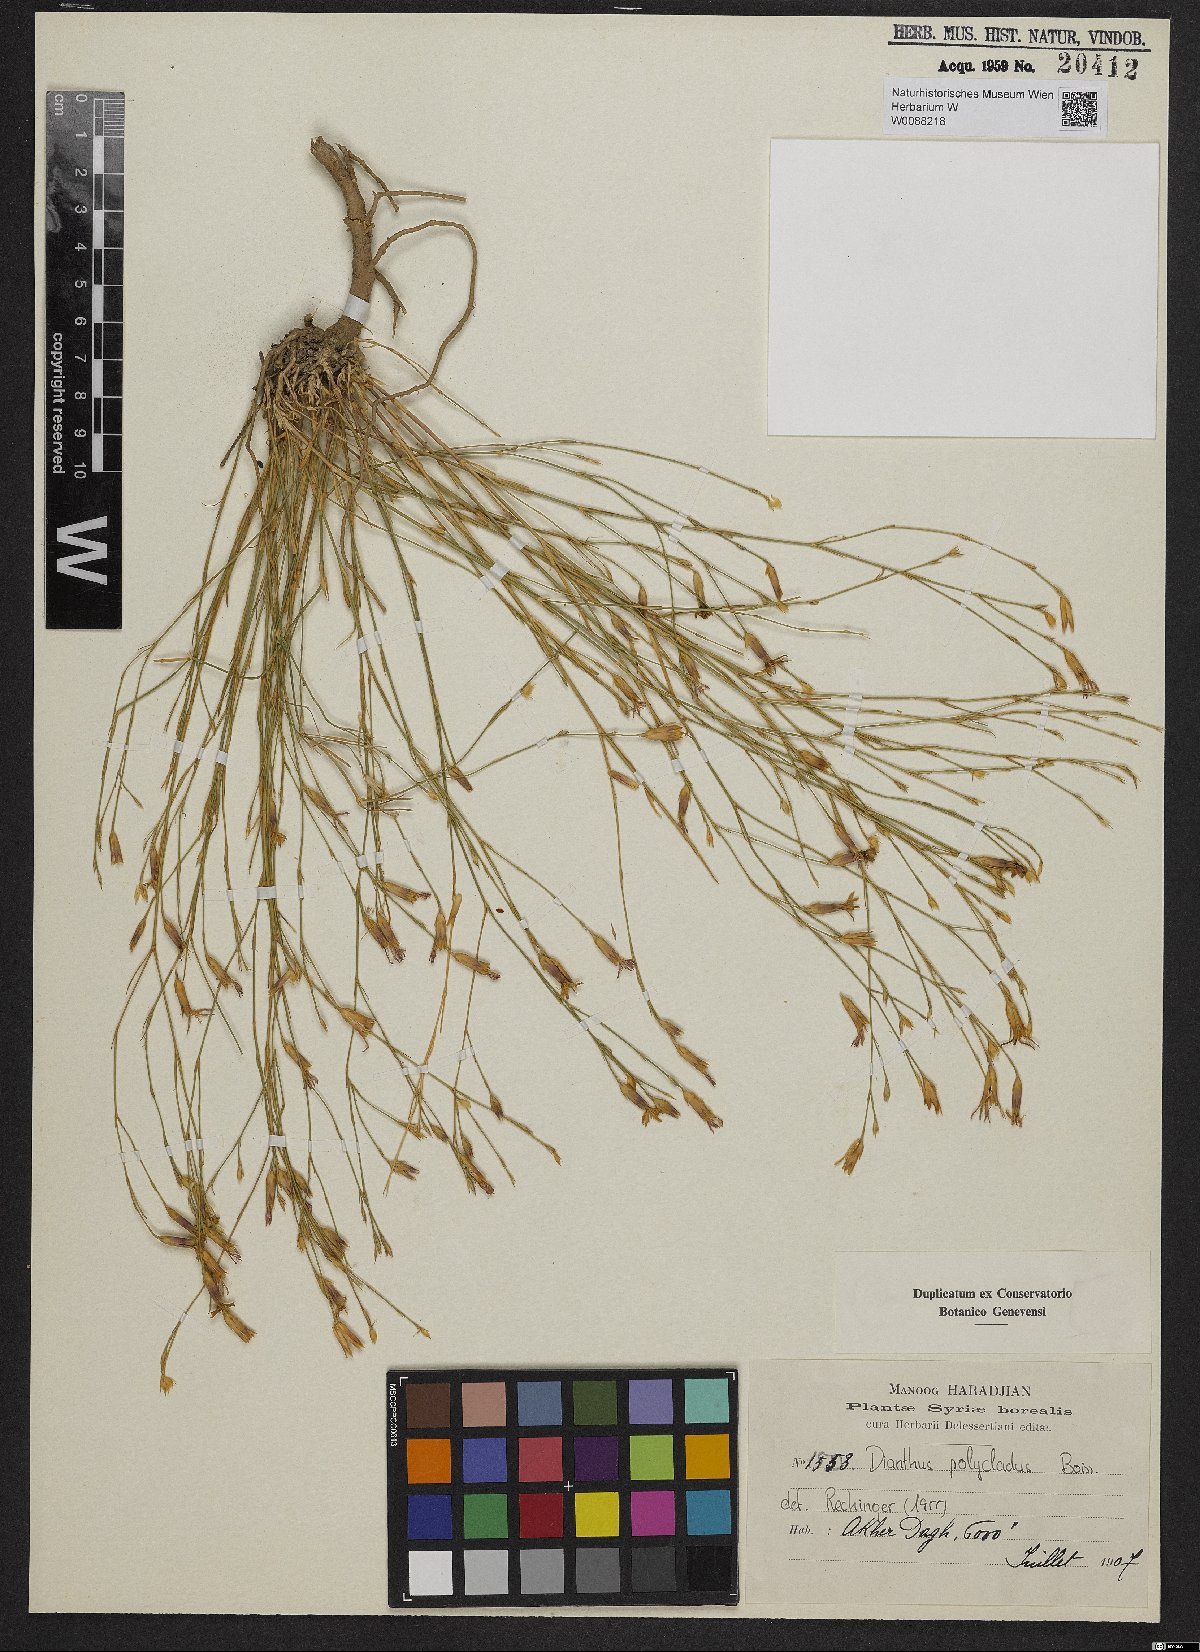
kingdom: Plantae
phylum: Tracheophyta
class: Magnoliopsida
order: Caryophyllales
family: Caryophyllaceae
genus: Dianthus
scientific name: Dianthus strictus
